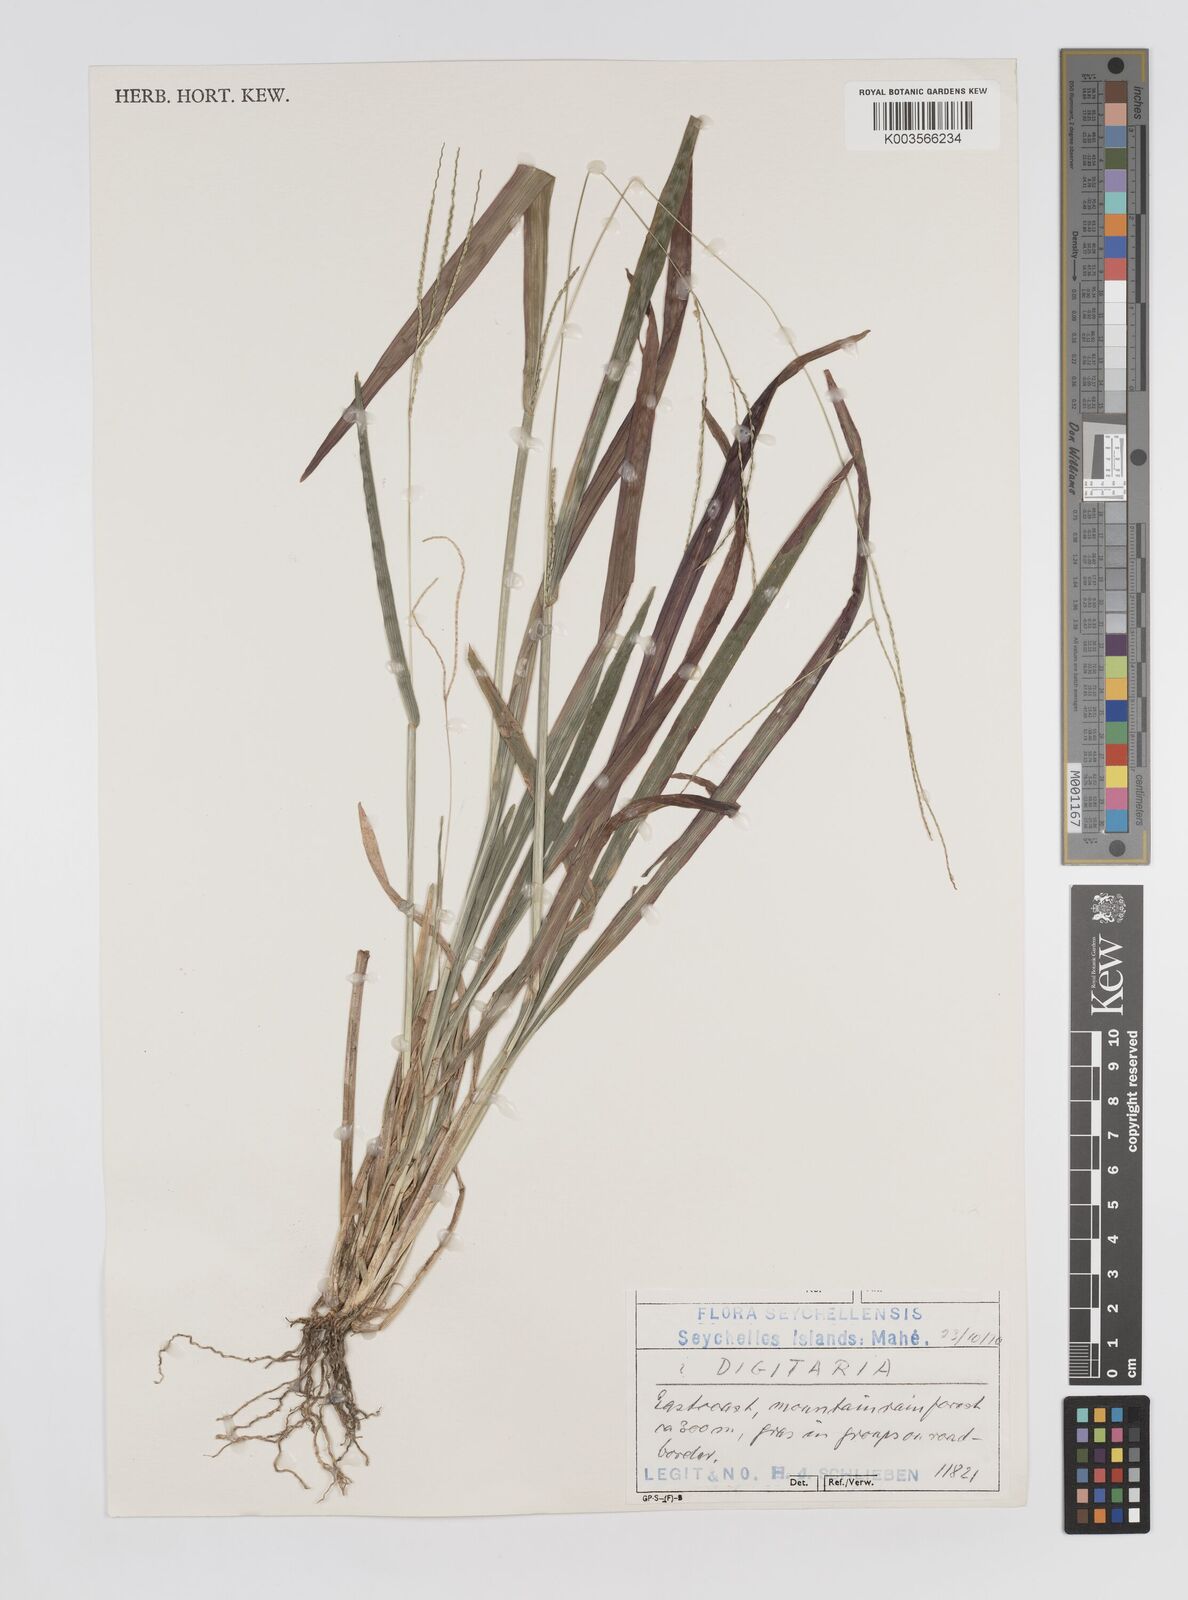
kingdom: Plantae
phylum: Tracheophyta
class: Liliopsida
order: Poales
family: Poaceae
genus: Axonopus
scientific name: Axonopus compressus
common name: American carpet grass
